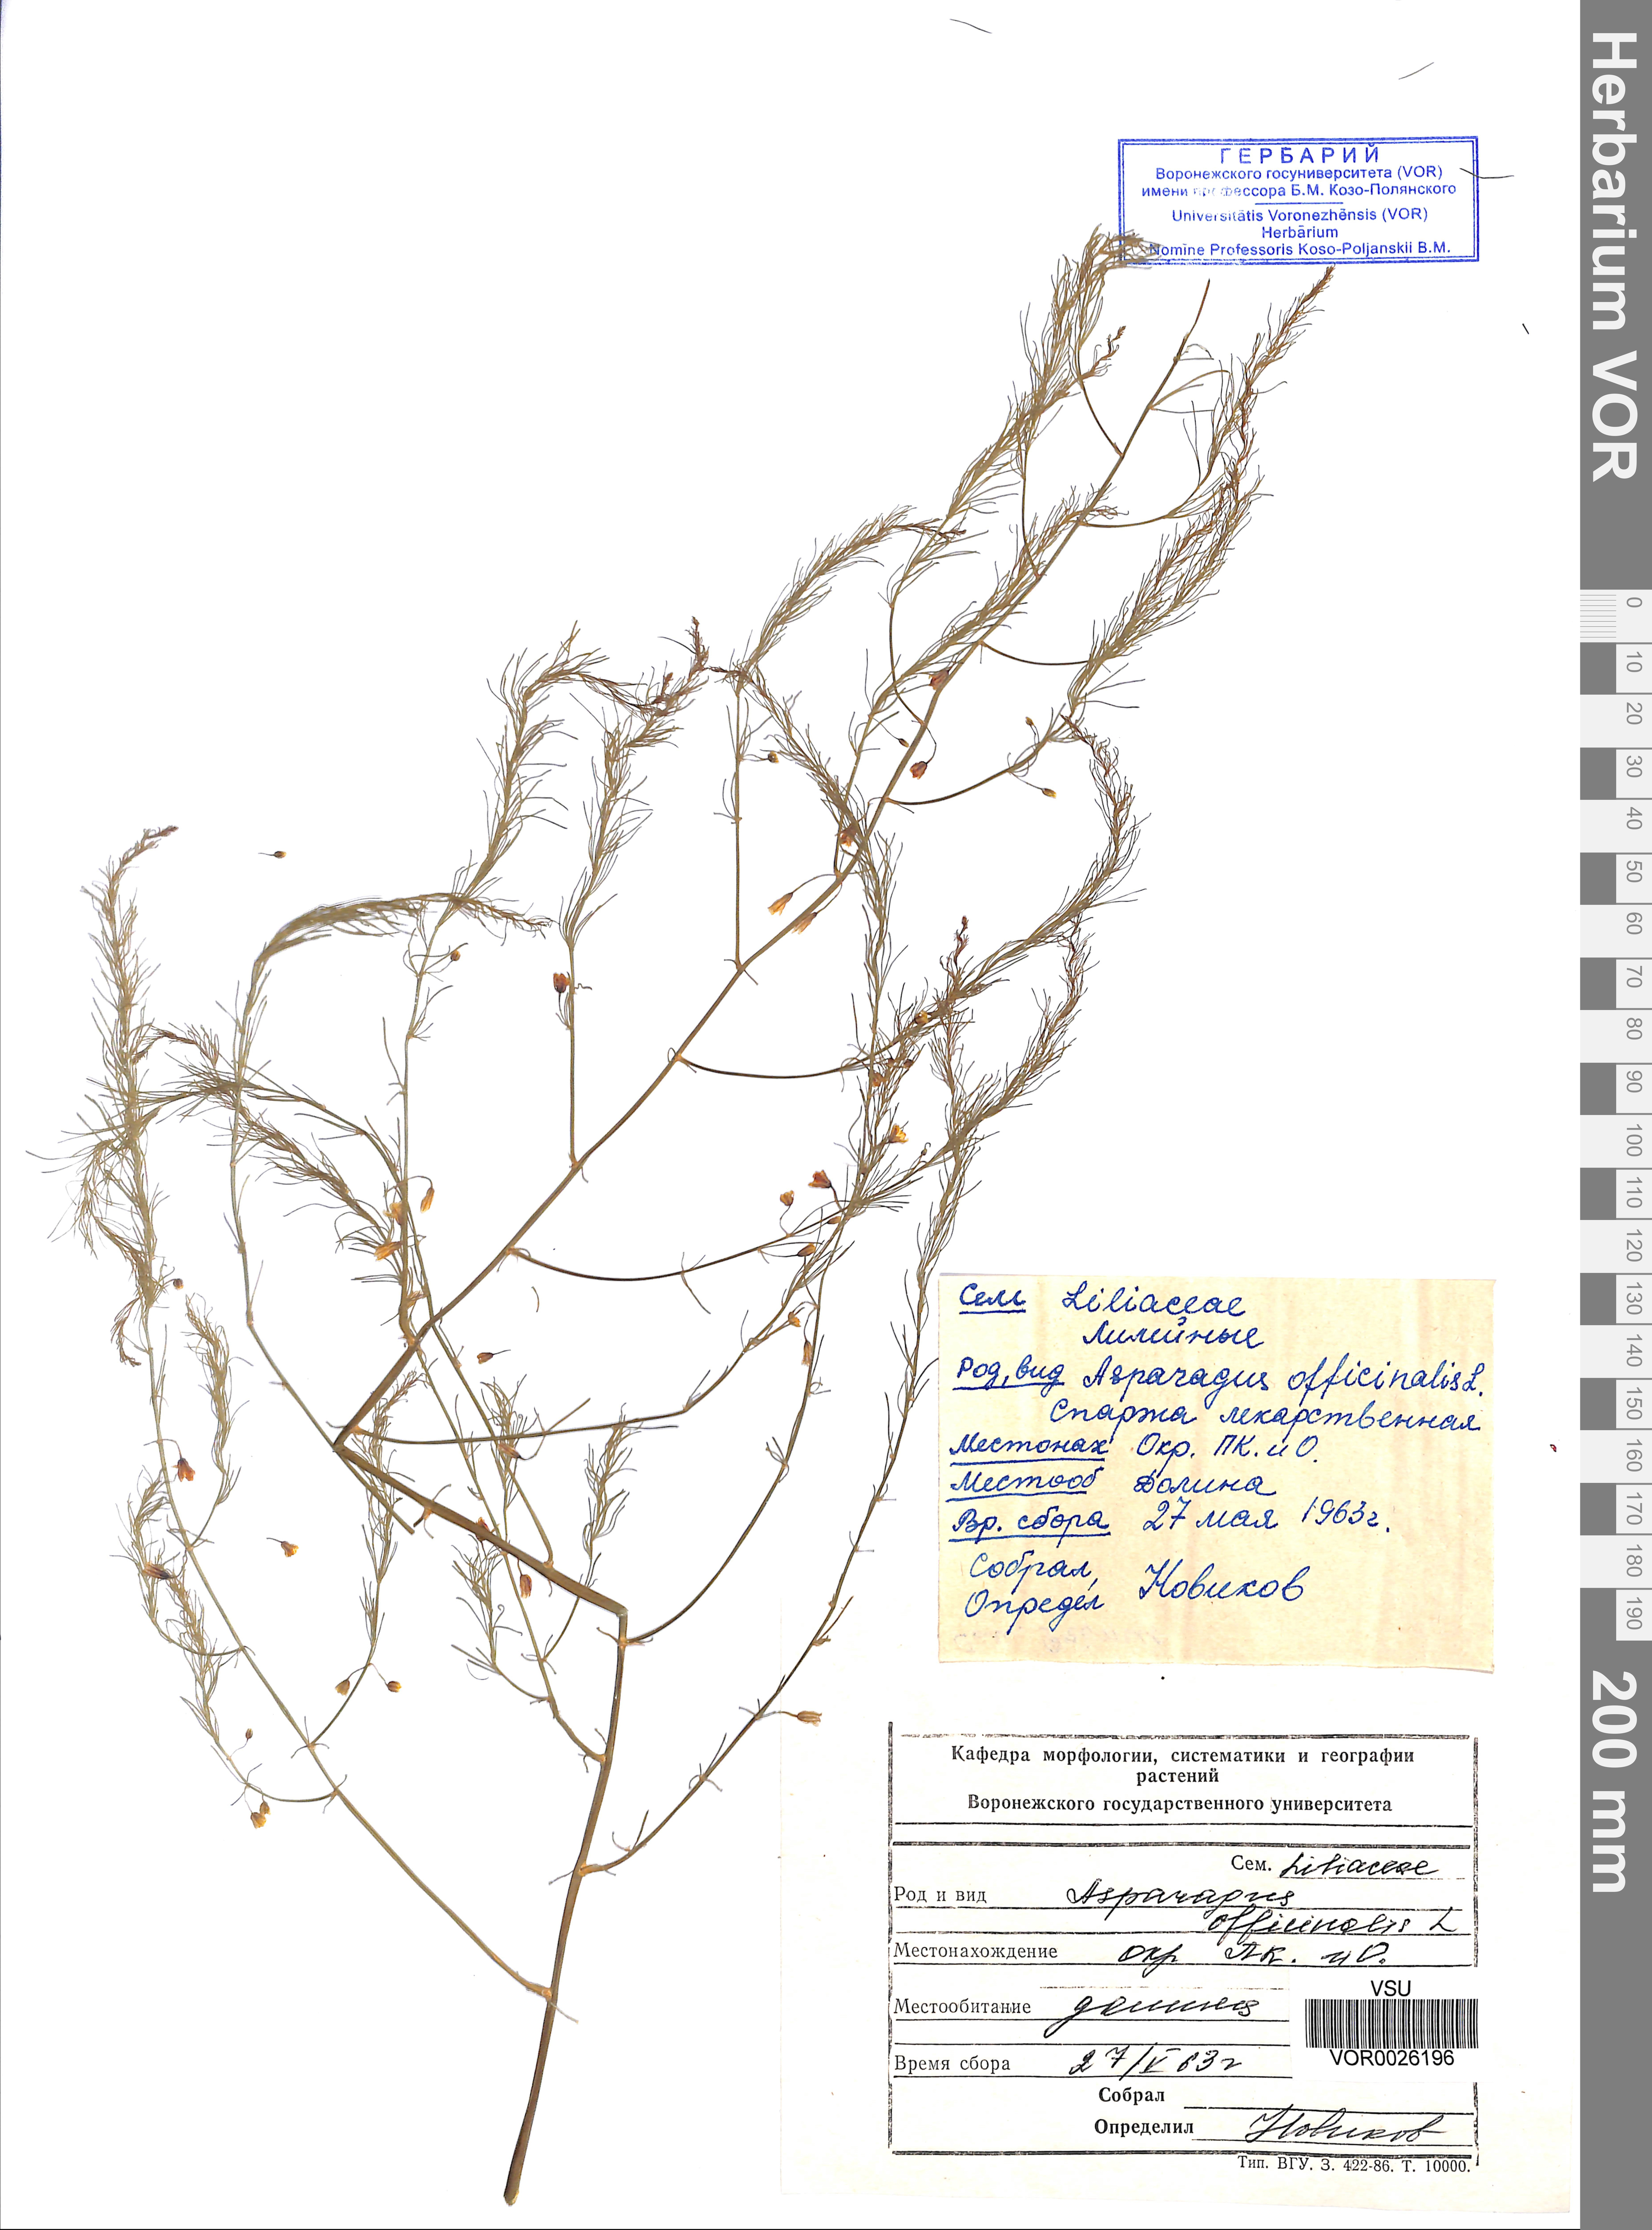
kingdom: Plantae
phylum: Tracheophyta
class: Liliopsida
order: Asparagales
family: Asparagaceae
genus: Asparagus
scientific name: Asparagus officinalis
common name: Garden asparagus
